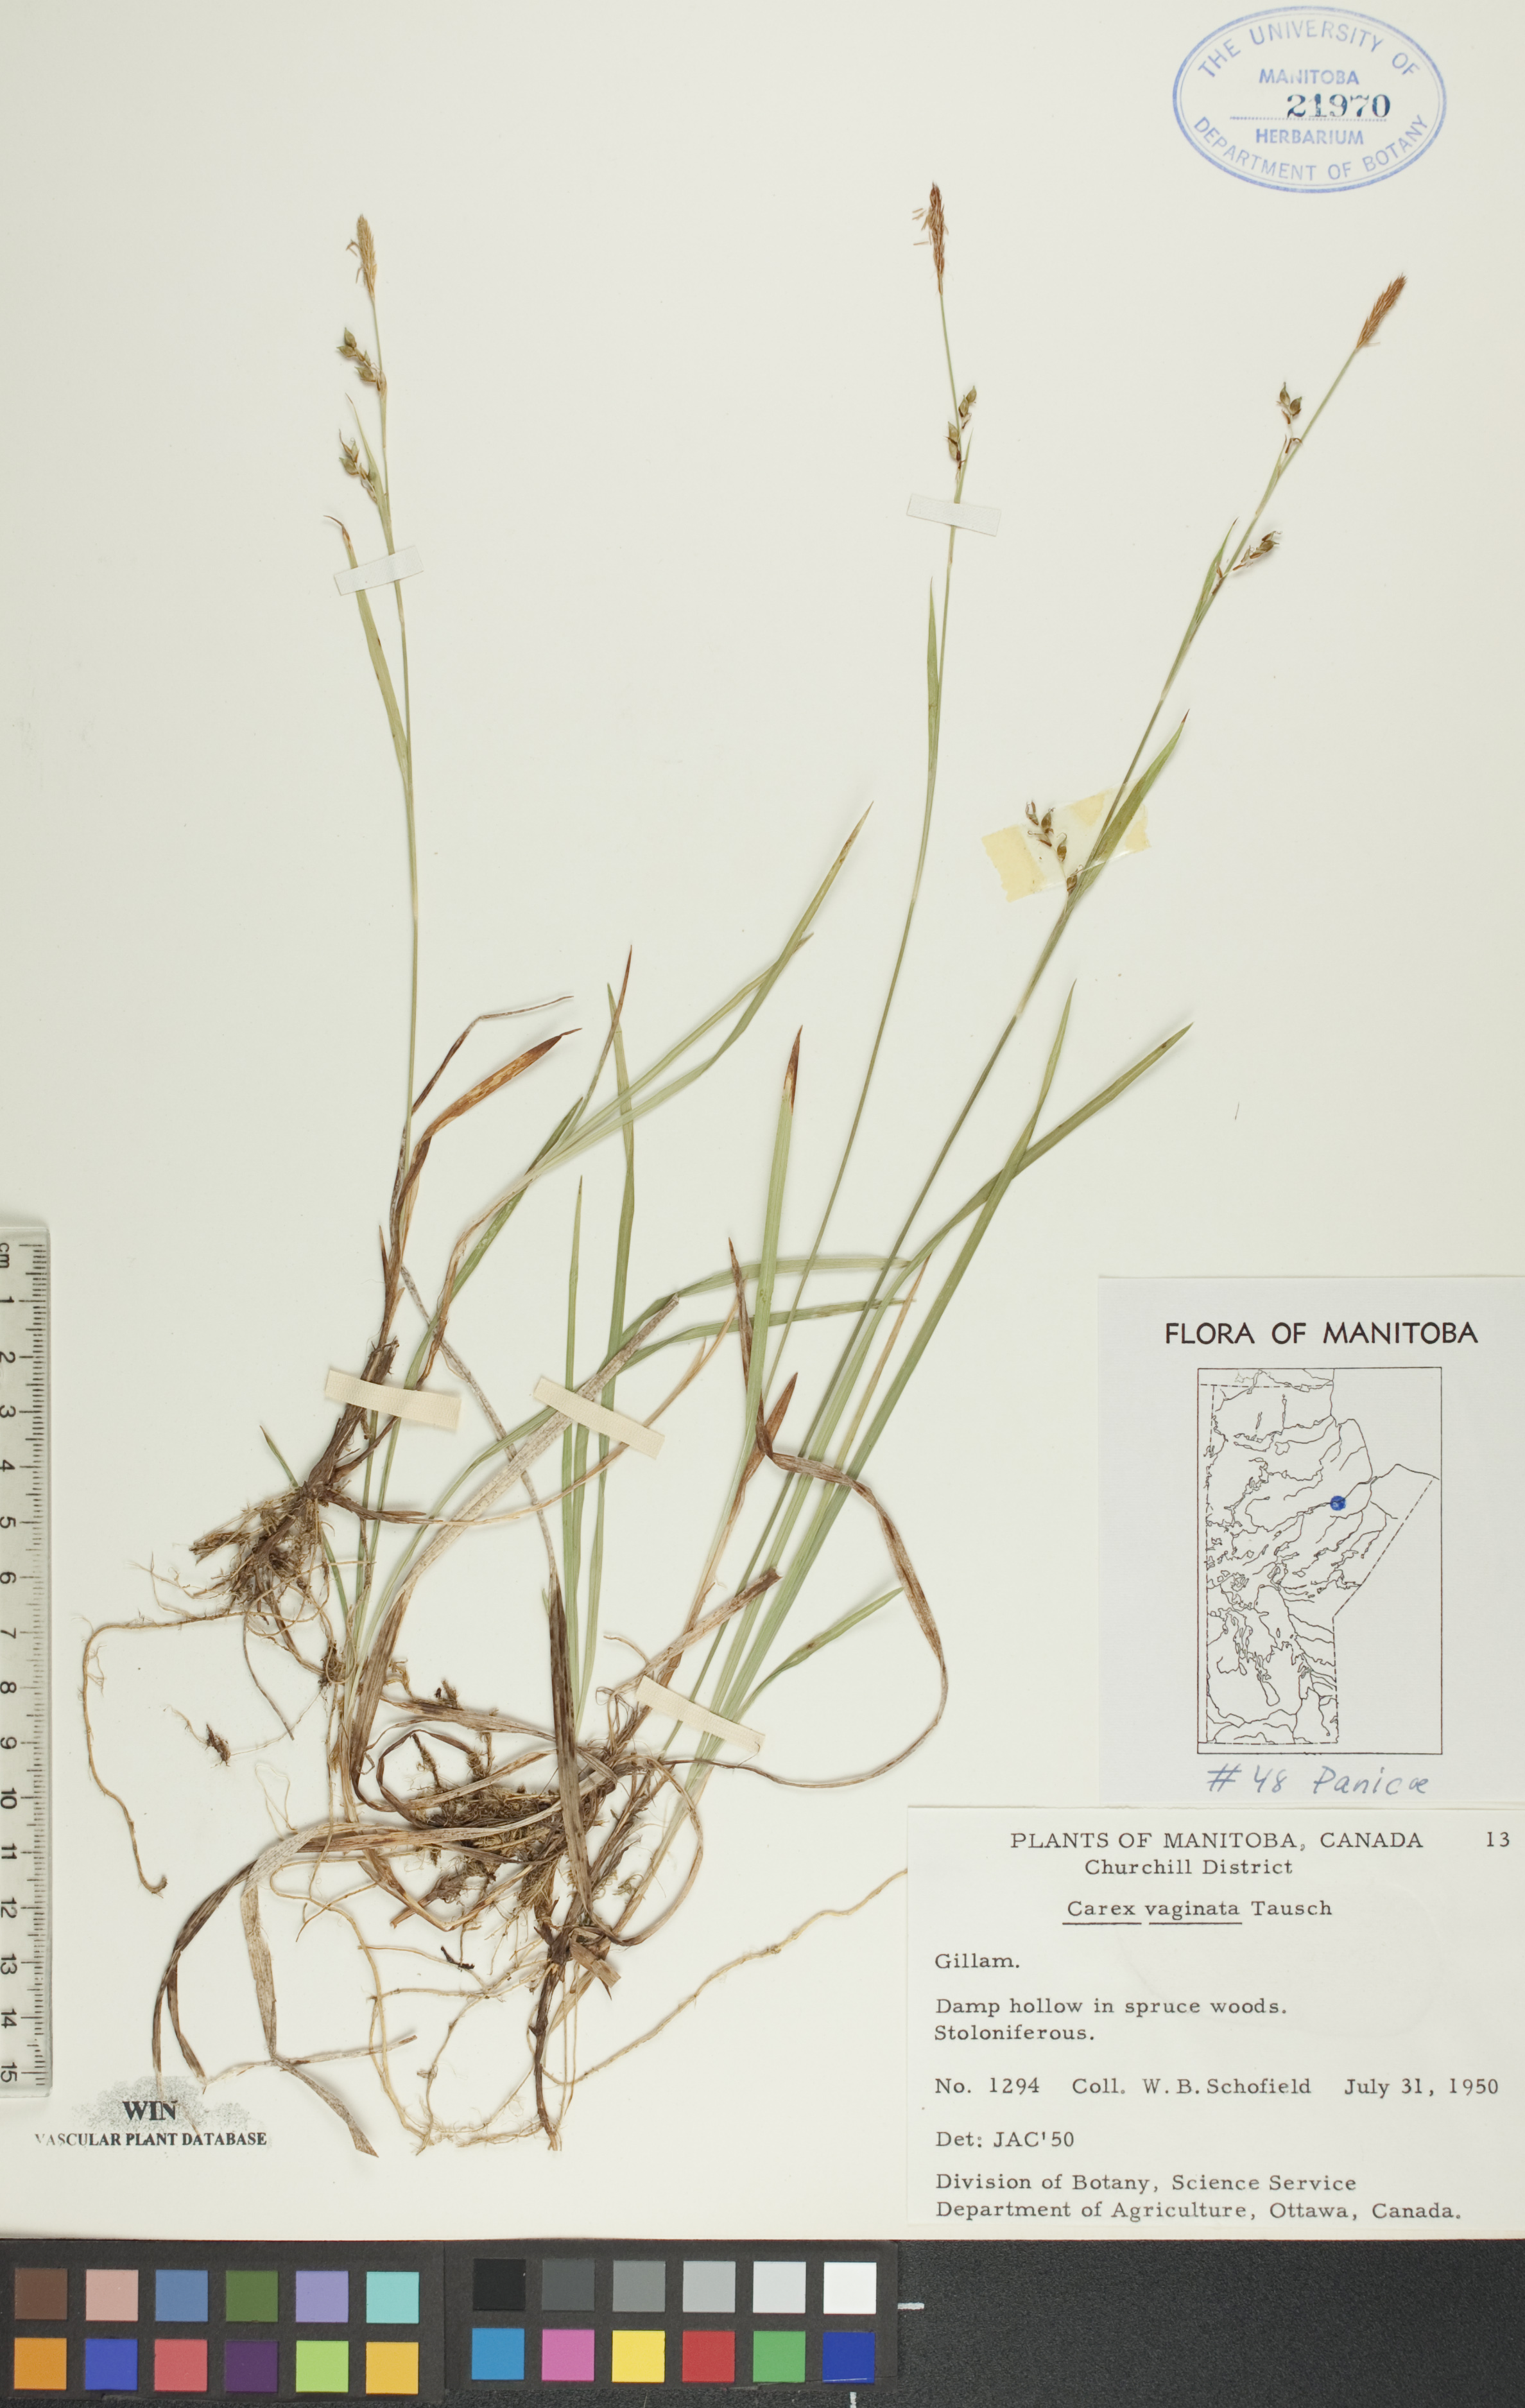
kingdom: Plantae
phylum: Tracheophyta
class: Liliopsida
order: Poales
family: Cyperaceae
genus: Carex
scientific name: Carex vaginata
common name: Sheathed sedge
